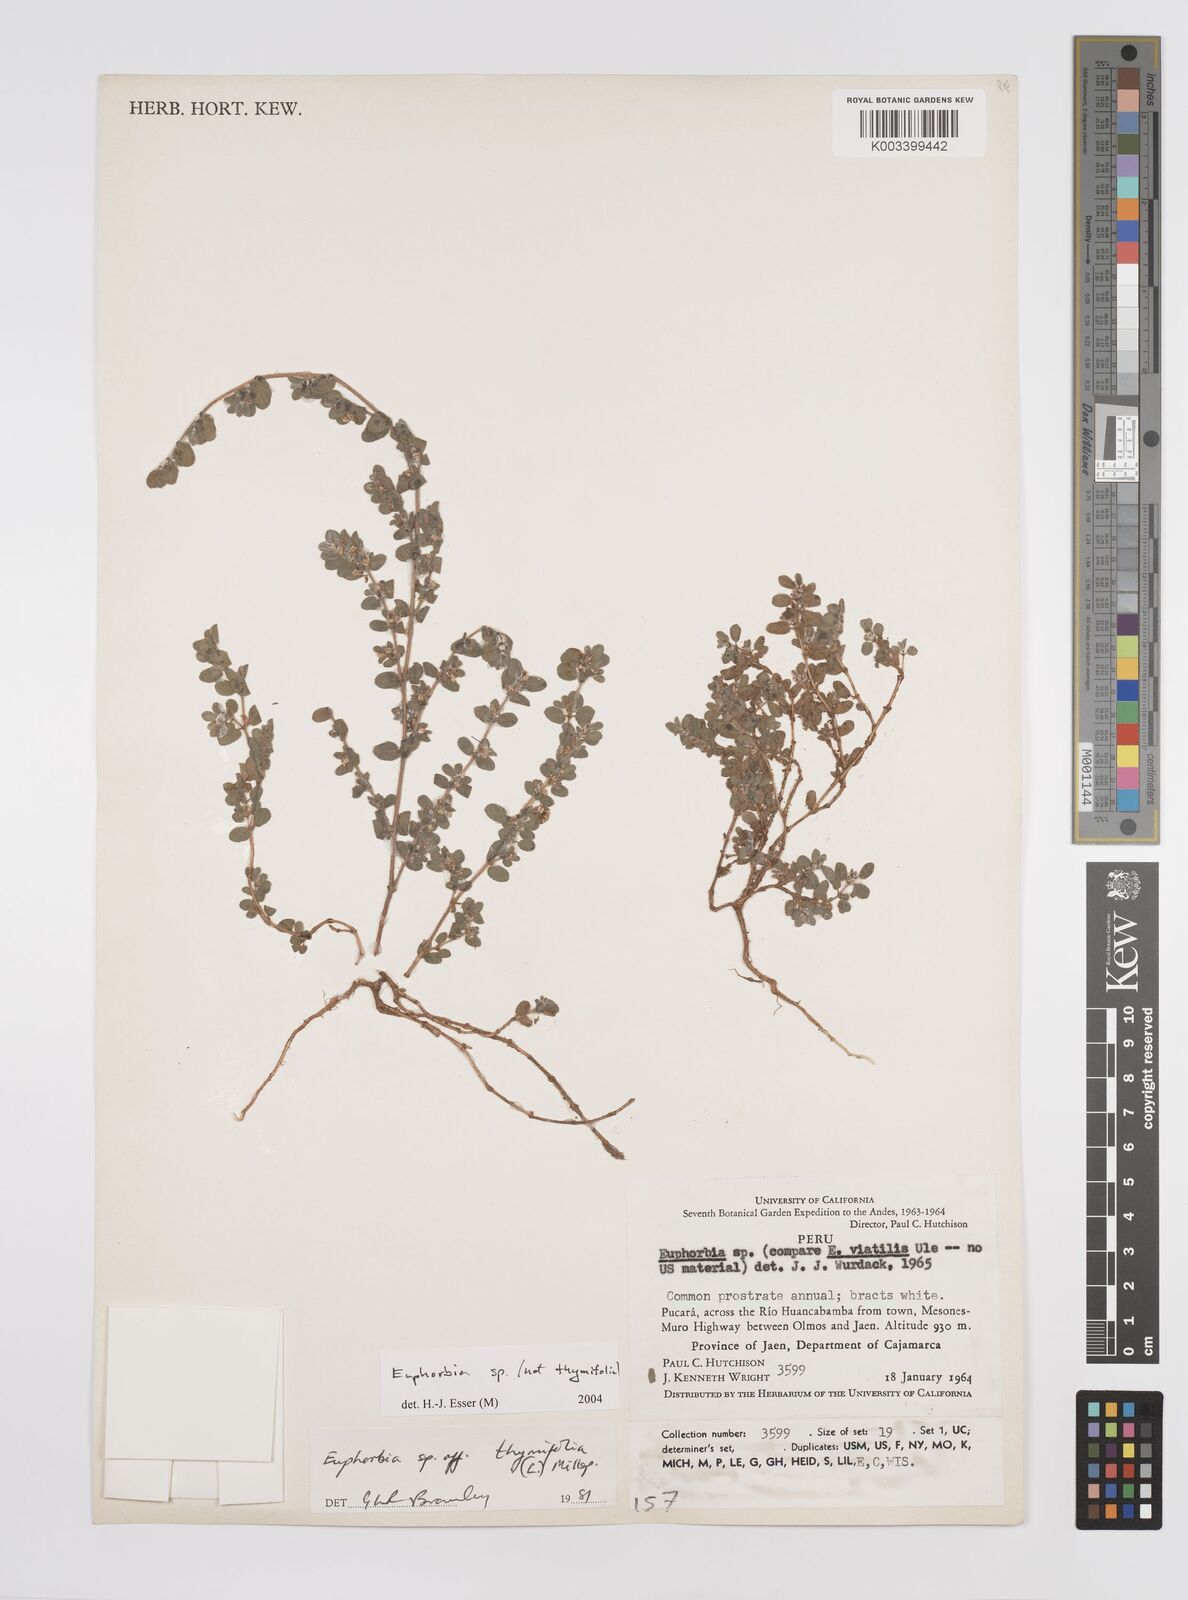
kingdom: Plantae
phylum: Tracheophyta
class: Magnoliopsida
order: Malpighiales
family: Euphorbiaceae
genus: Euphorbia
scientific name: Euphorbia
